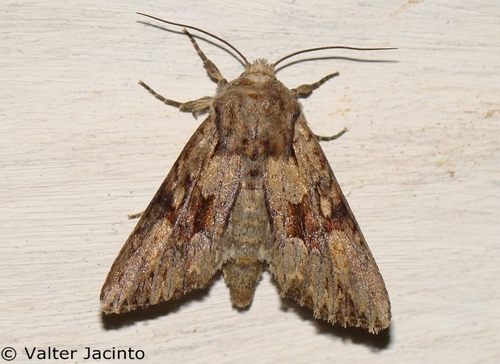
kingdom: Animalia
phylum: Arthropoda
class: Insecta
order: Lepidoptera
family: Noctuidae
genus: Apamea
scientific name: Apamea arabs
